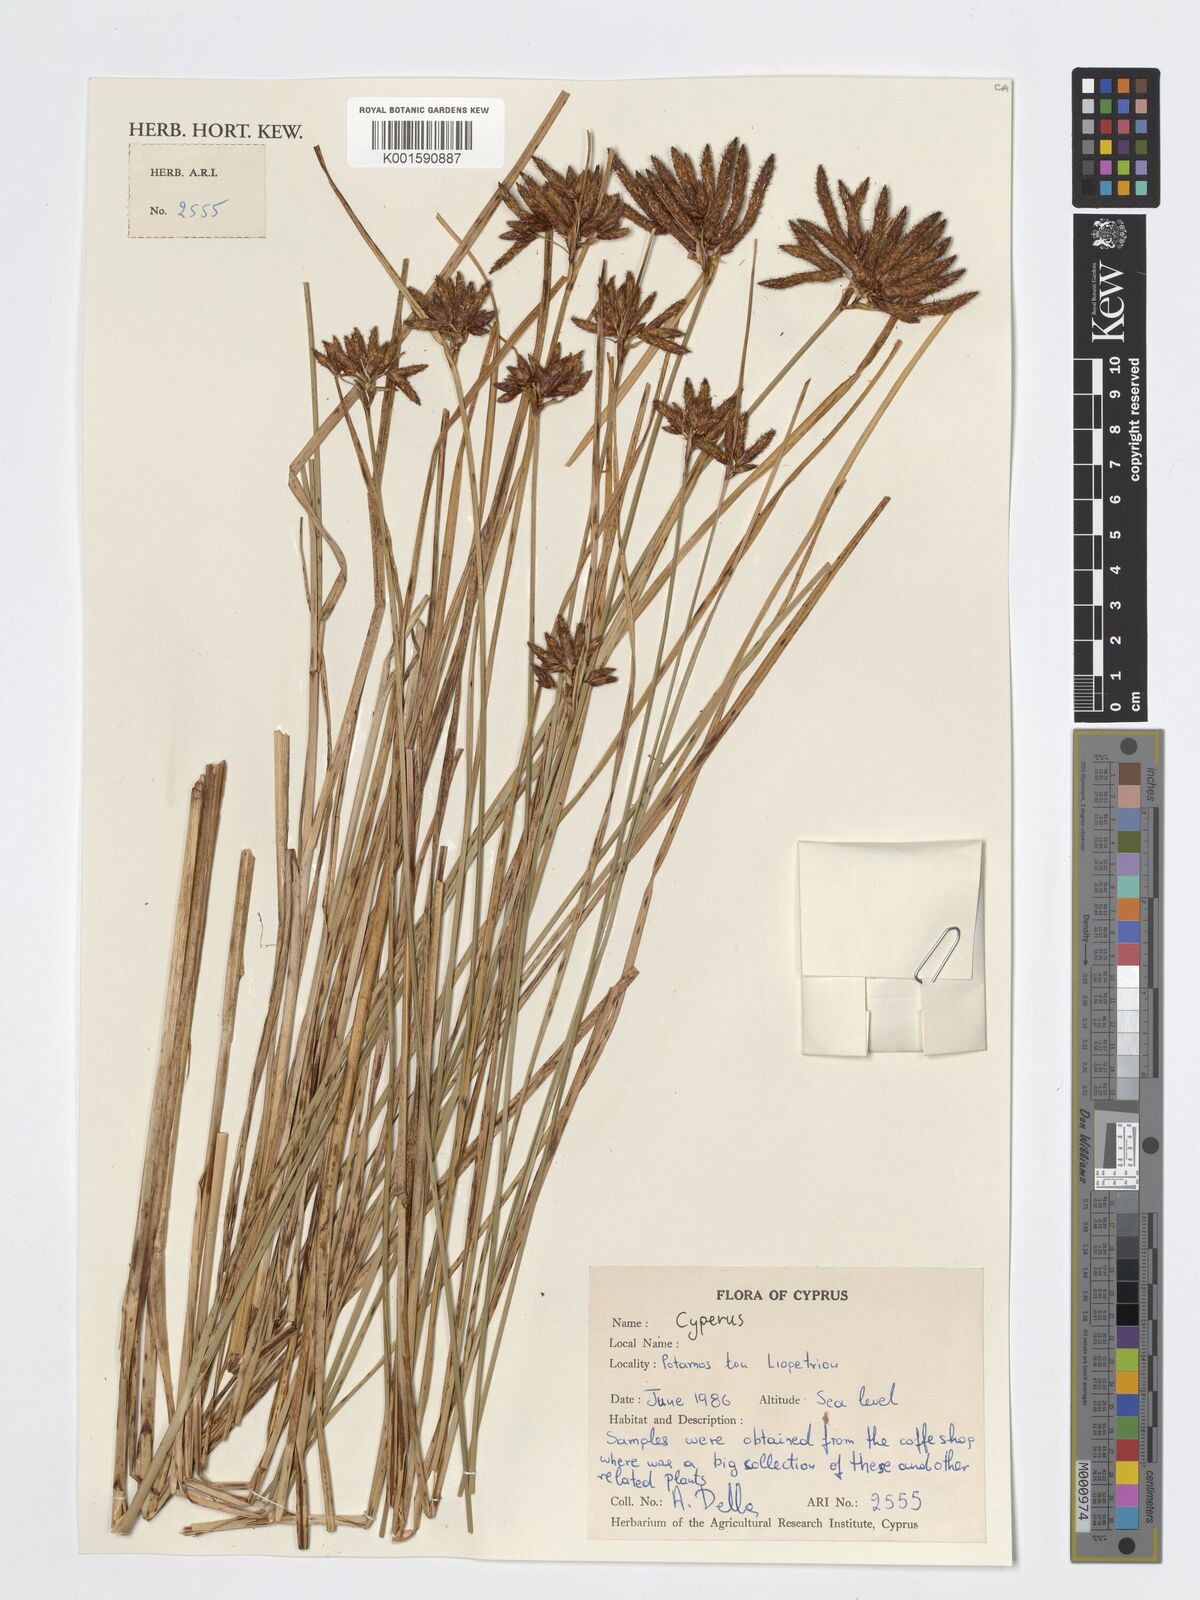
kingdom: Plantae
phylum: Tracheophyta
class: Liliopsida
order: Poales
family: Cyperaceae
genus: Cyperus
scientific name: Cyperus
